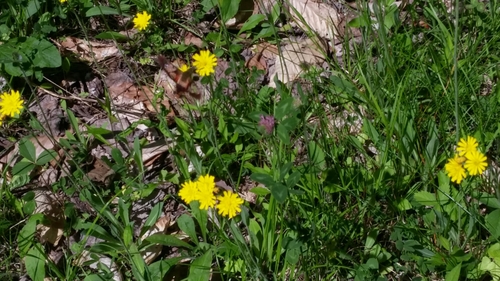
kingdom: Animalia
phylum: Arthropoda
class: Insecta
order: Lepidoptera
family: Sphingidae
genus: Hemaris
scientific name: Hemaris thysbe
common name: Common clear-wing
